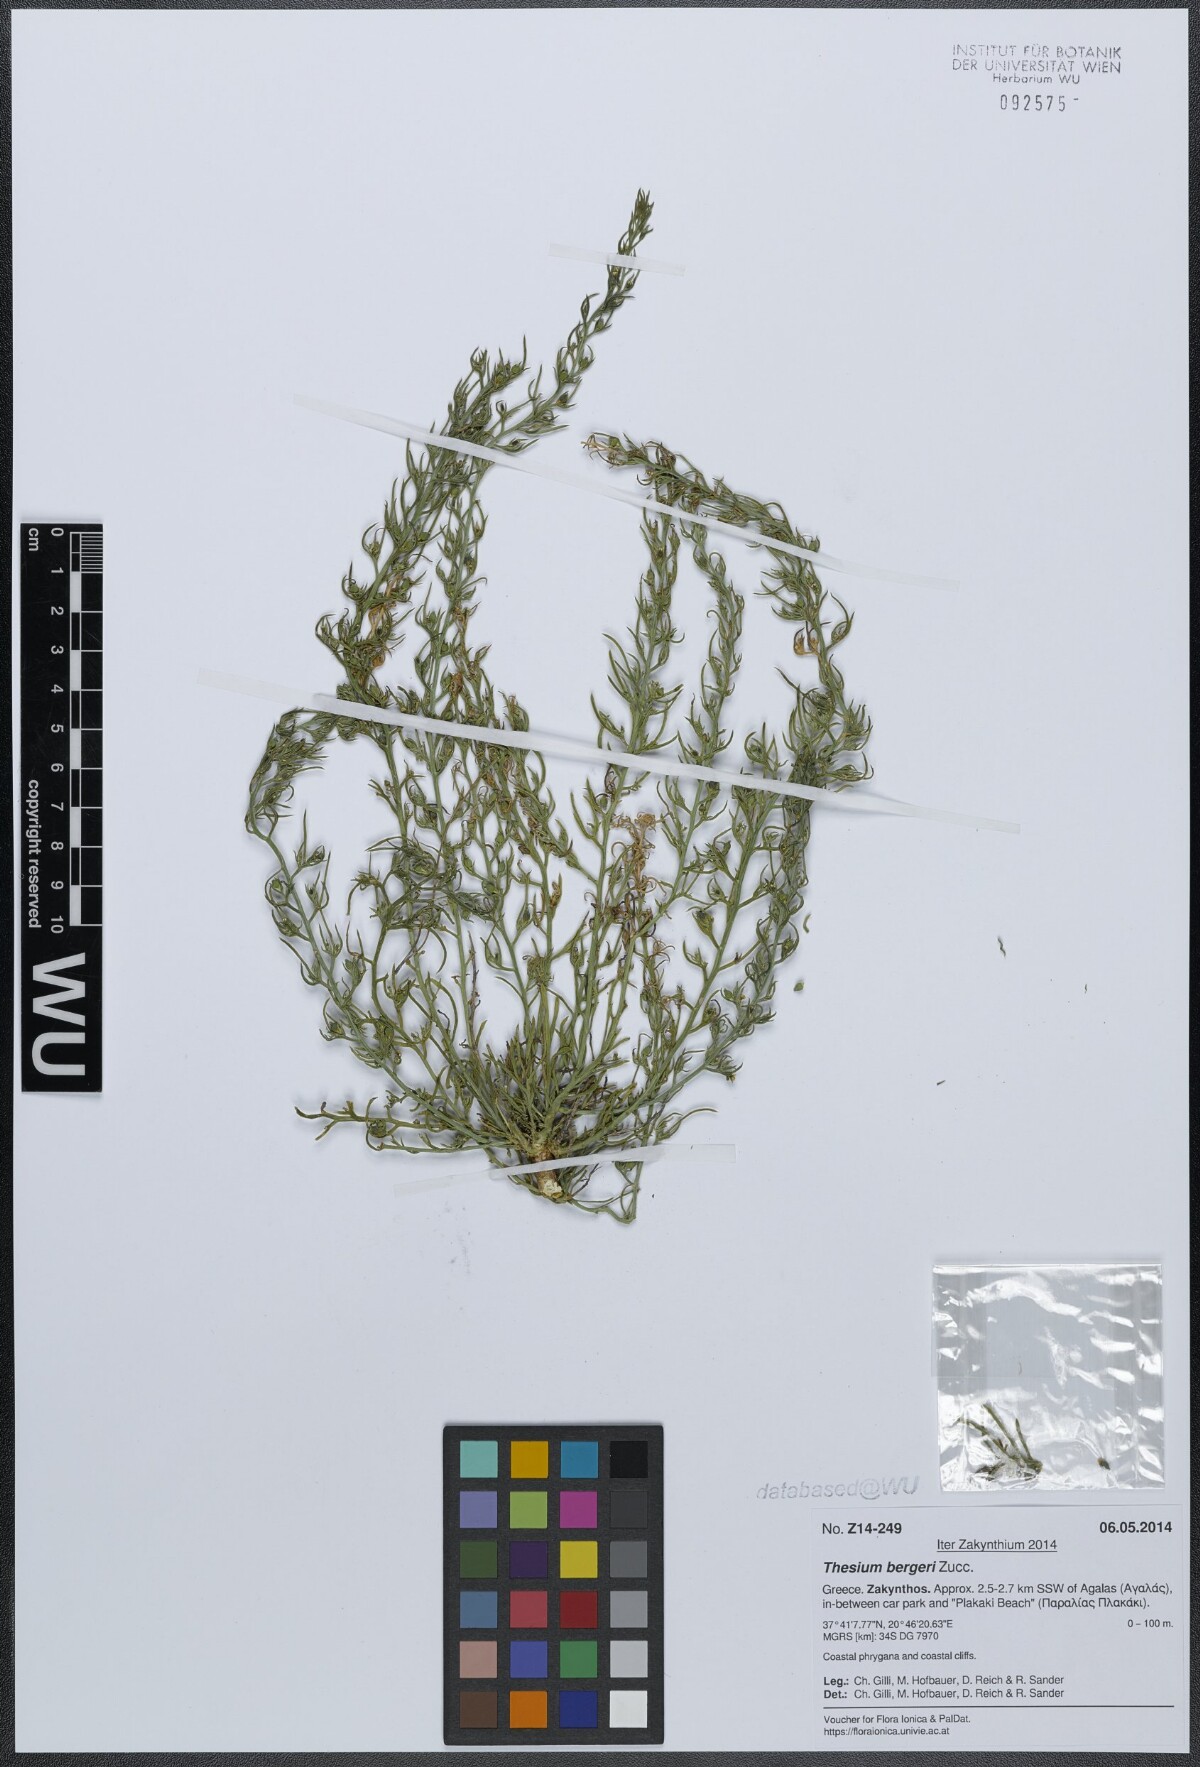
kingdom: Plantae
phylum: Tracheophyta
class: Magnoliopsida
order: Santalales
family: Thesiaceae
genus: Thesium
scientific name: Thesium bergeri
